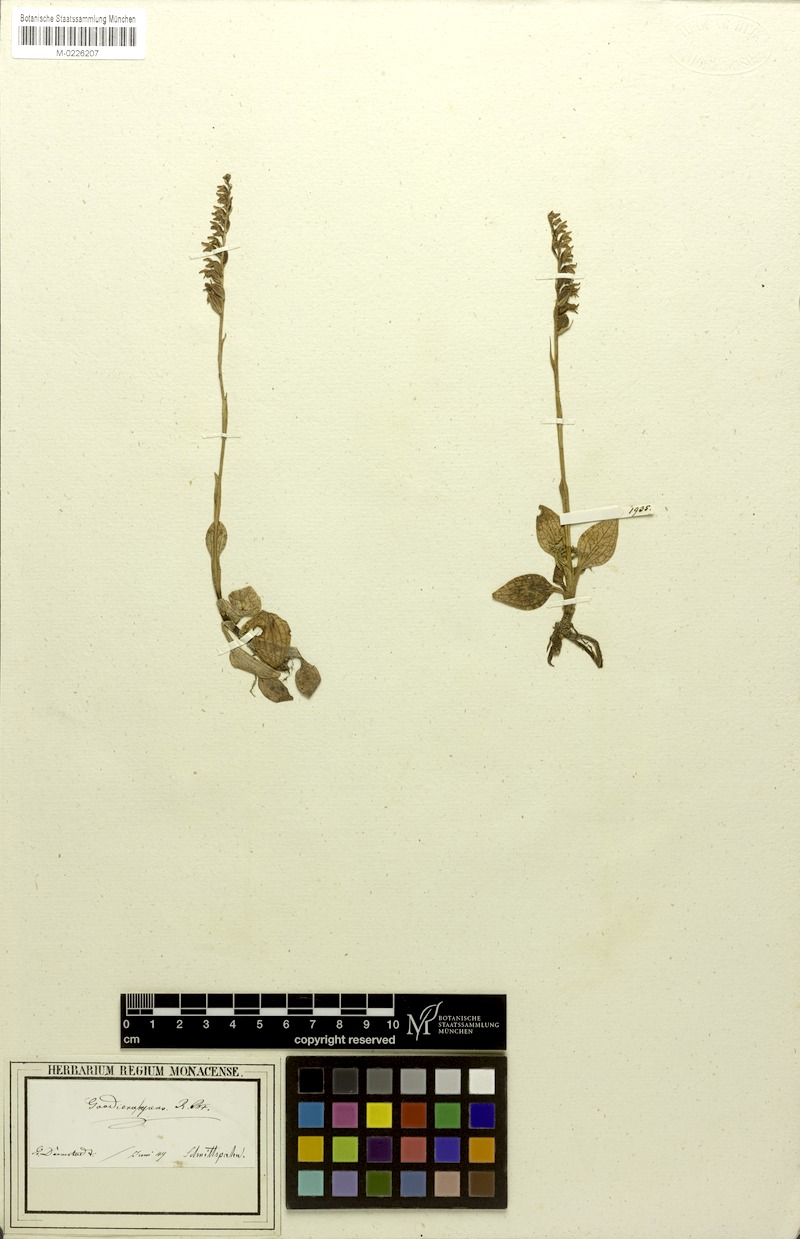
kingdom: Plantae
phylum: Tracheophyta
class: Liliopsida
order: Asparagales
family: Orchidaceae
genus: Goodyera
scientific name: Goodyera repens
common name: Creeping lady's-tresses
